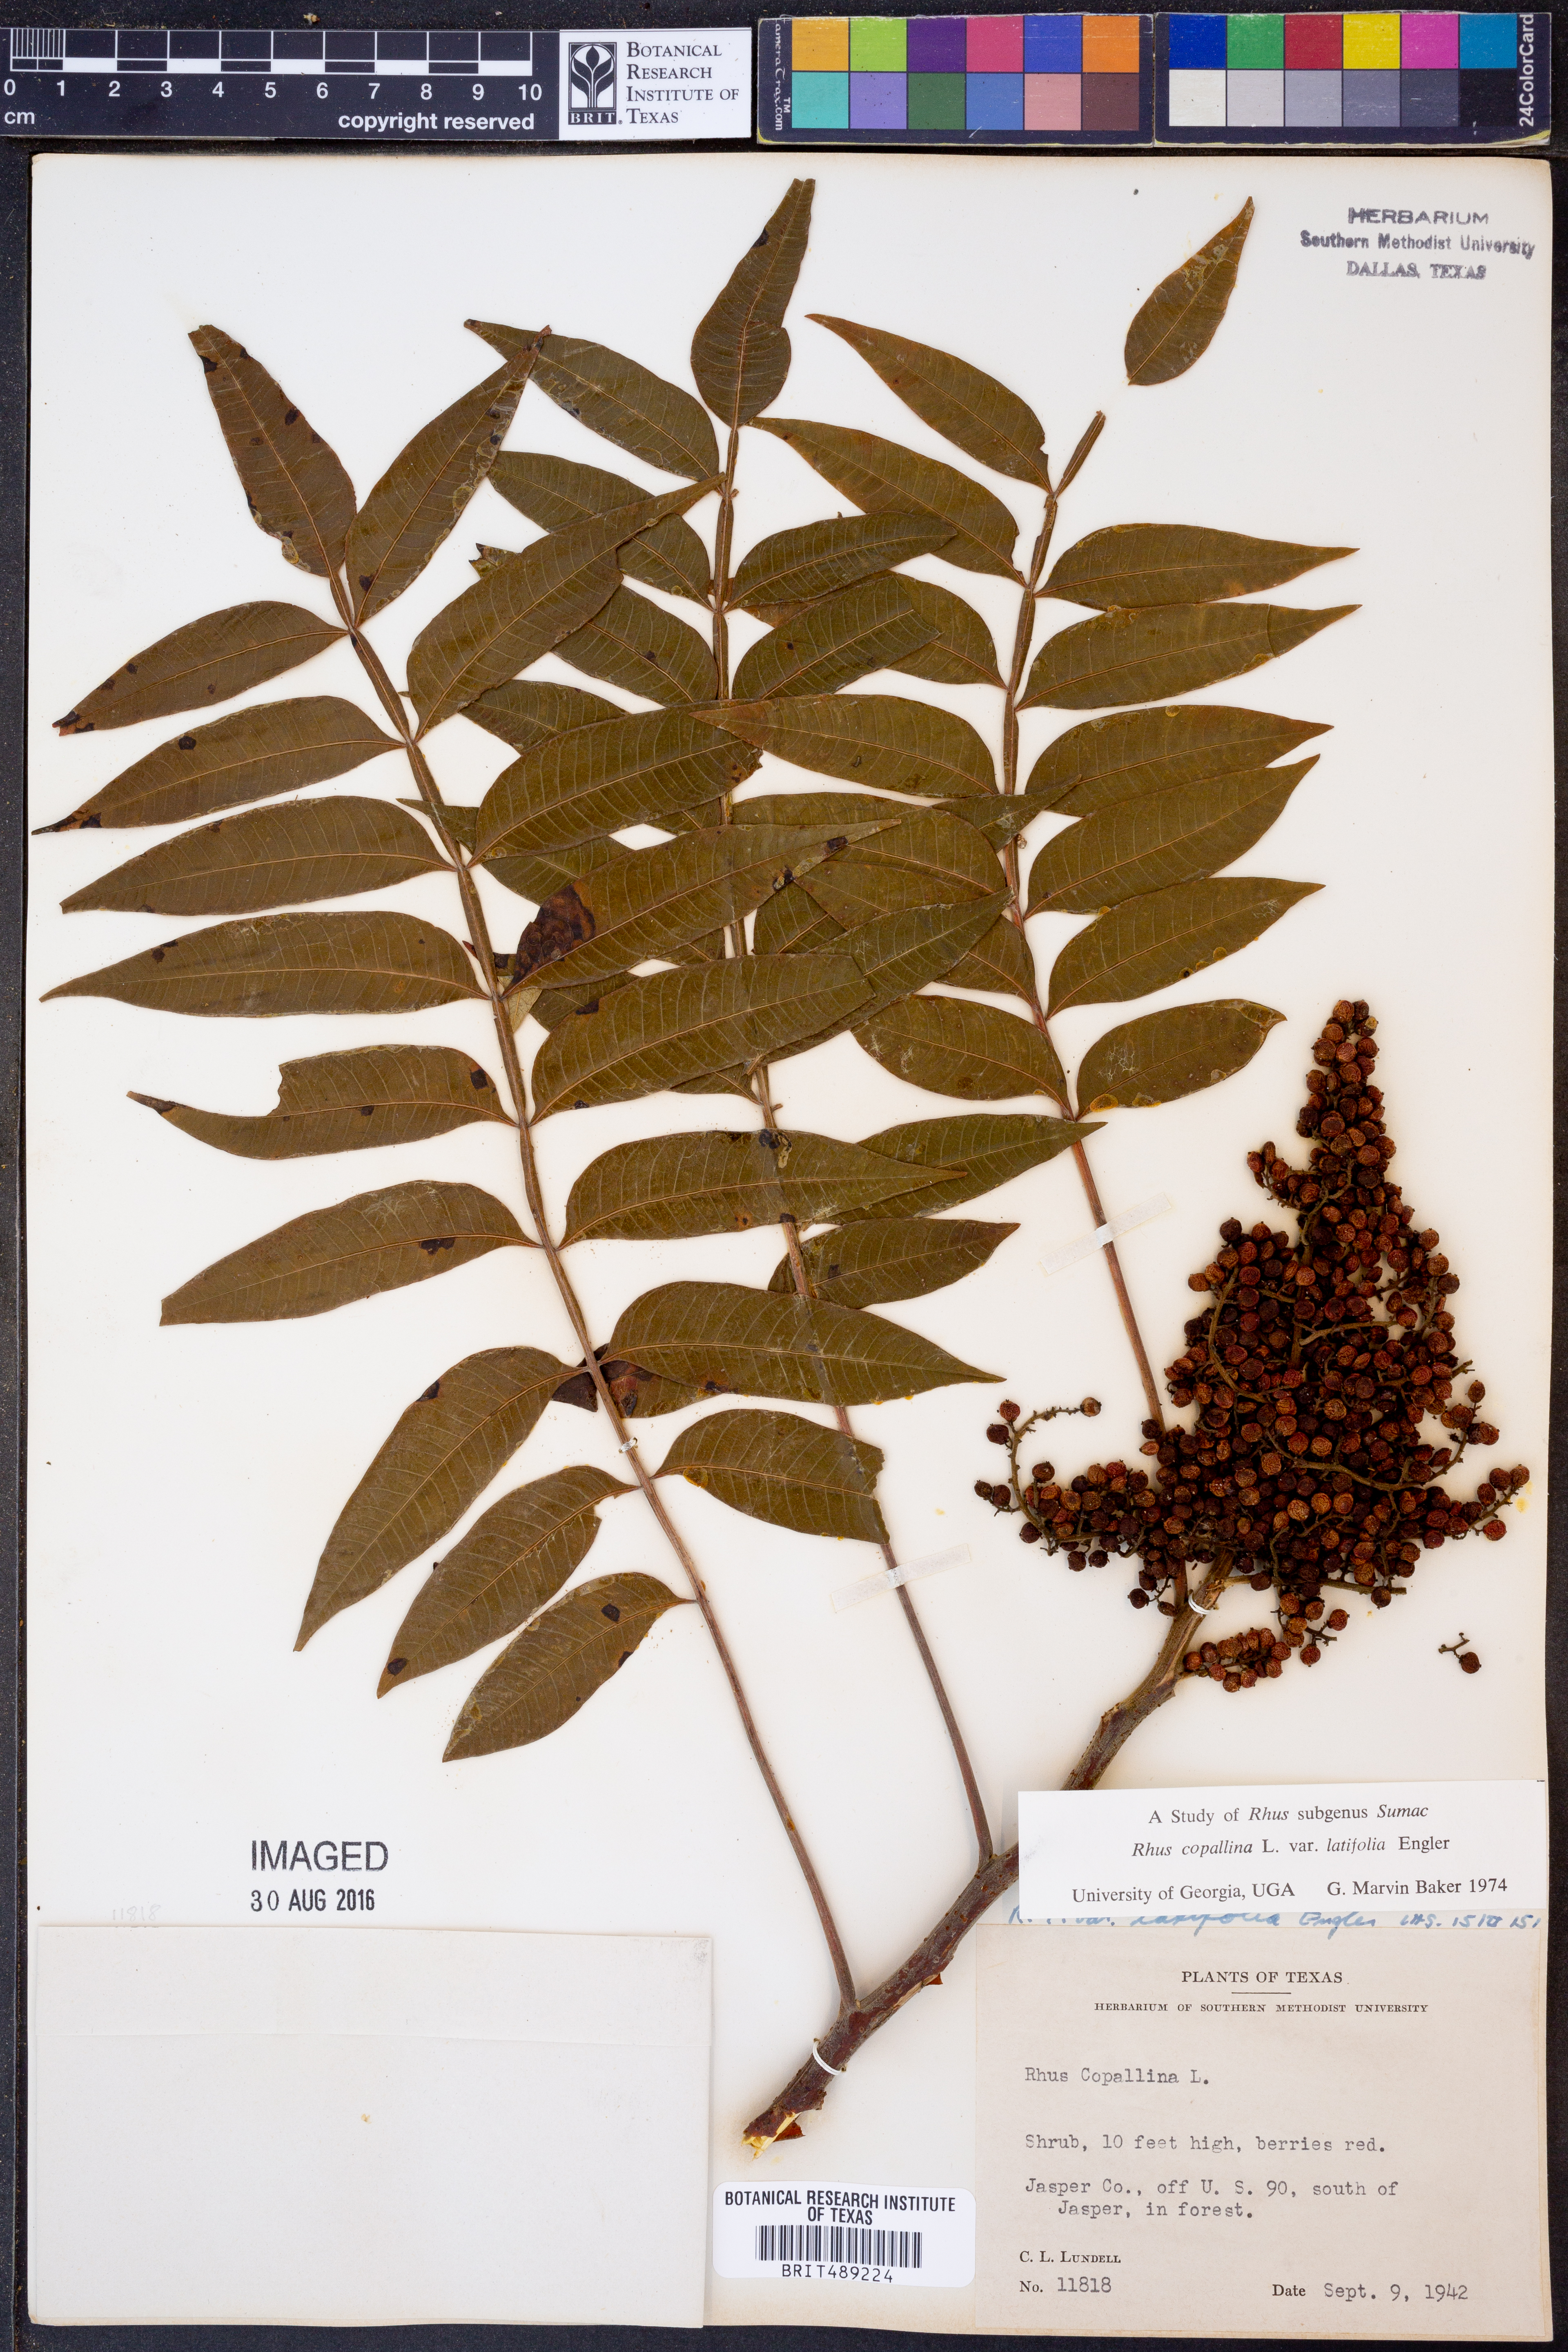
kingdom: Plantae
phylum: Tracheophyta
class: Magnoliopsida
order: Sapindales
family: Anacardiaceae
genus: Rhus
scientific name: Rhus copallina
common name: Shining sumac
